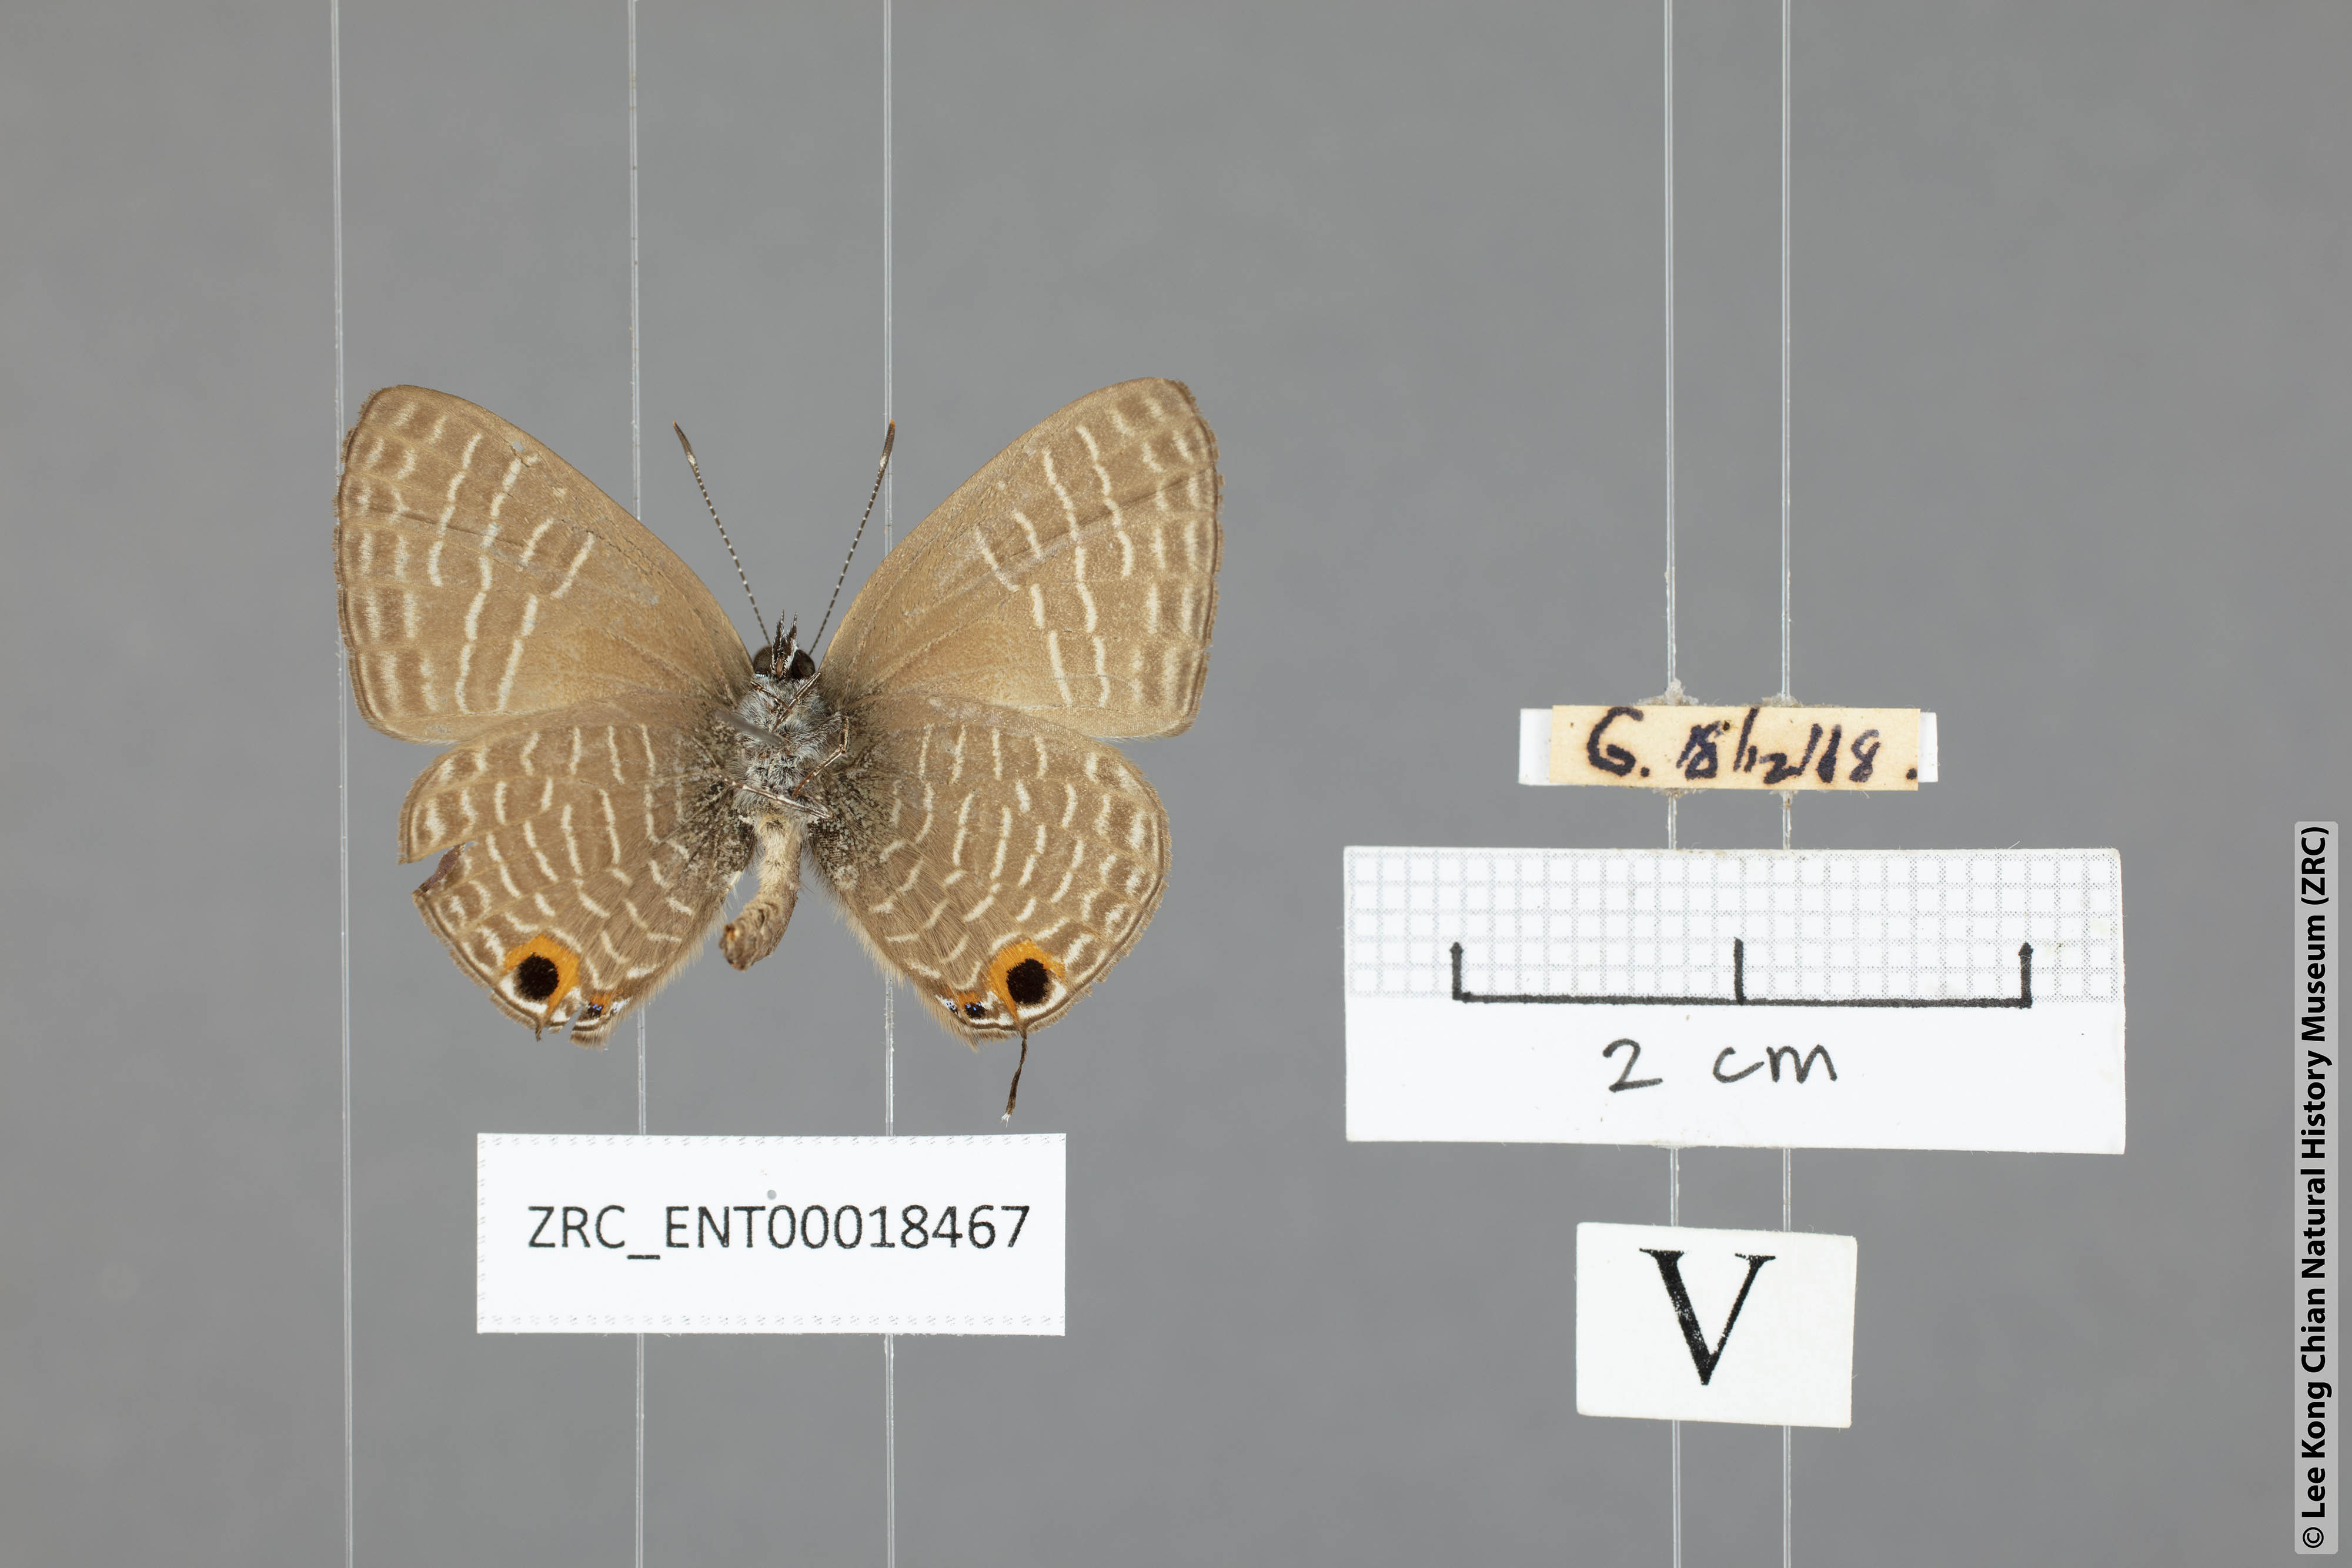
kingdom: Animalia
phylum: Arthropoda
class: Insecta
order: Lepidoptera
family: Lycaenidae
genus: Nacaduba
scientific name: Nacaduba solta
